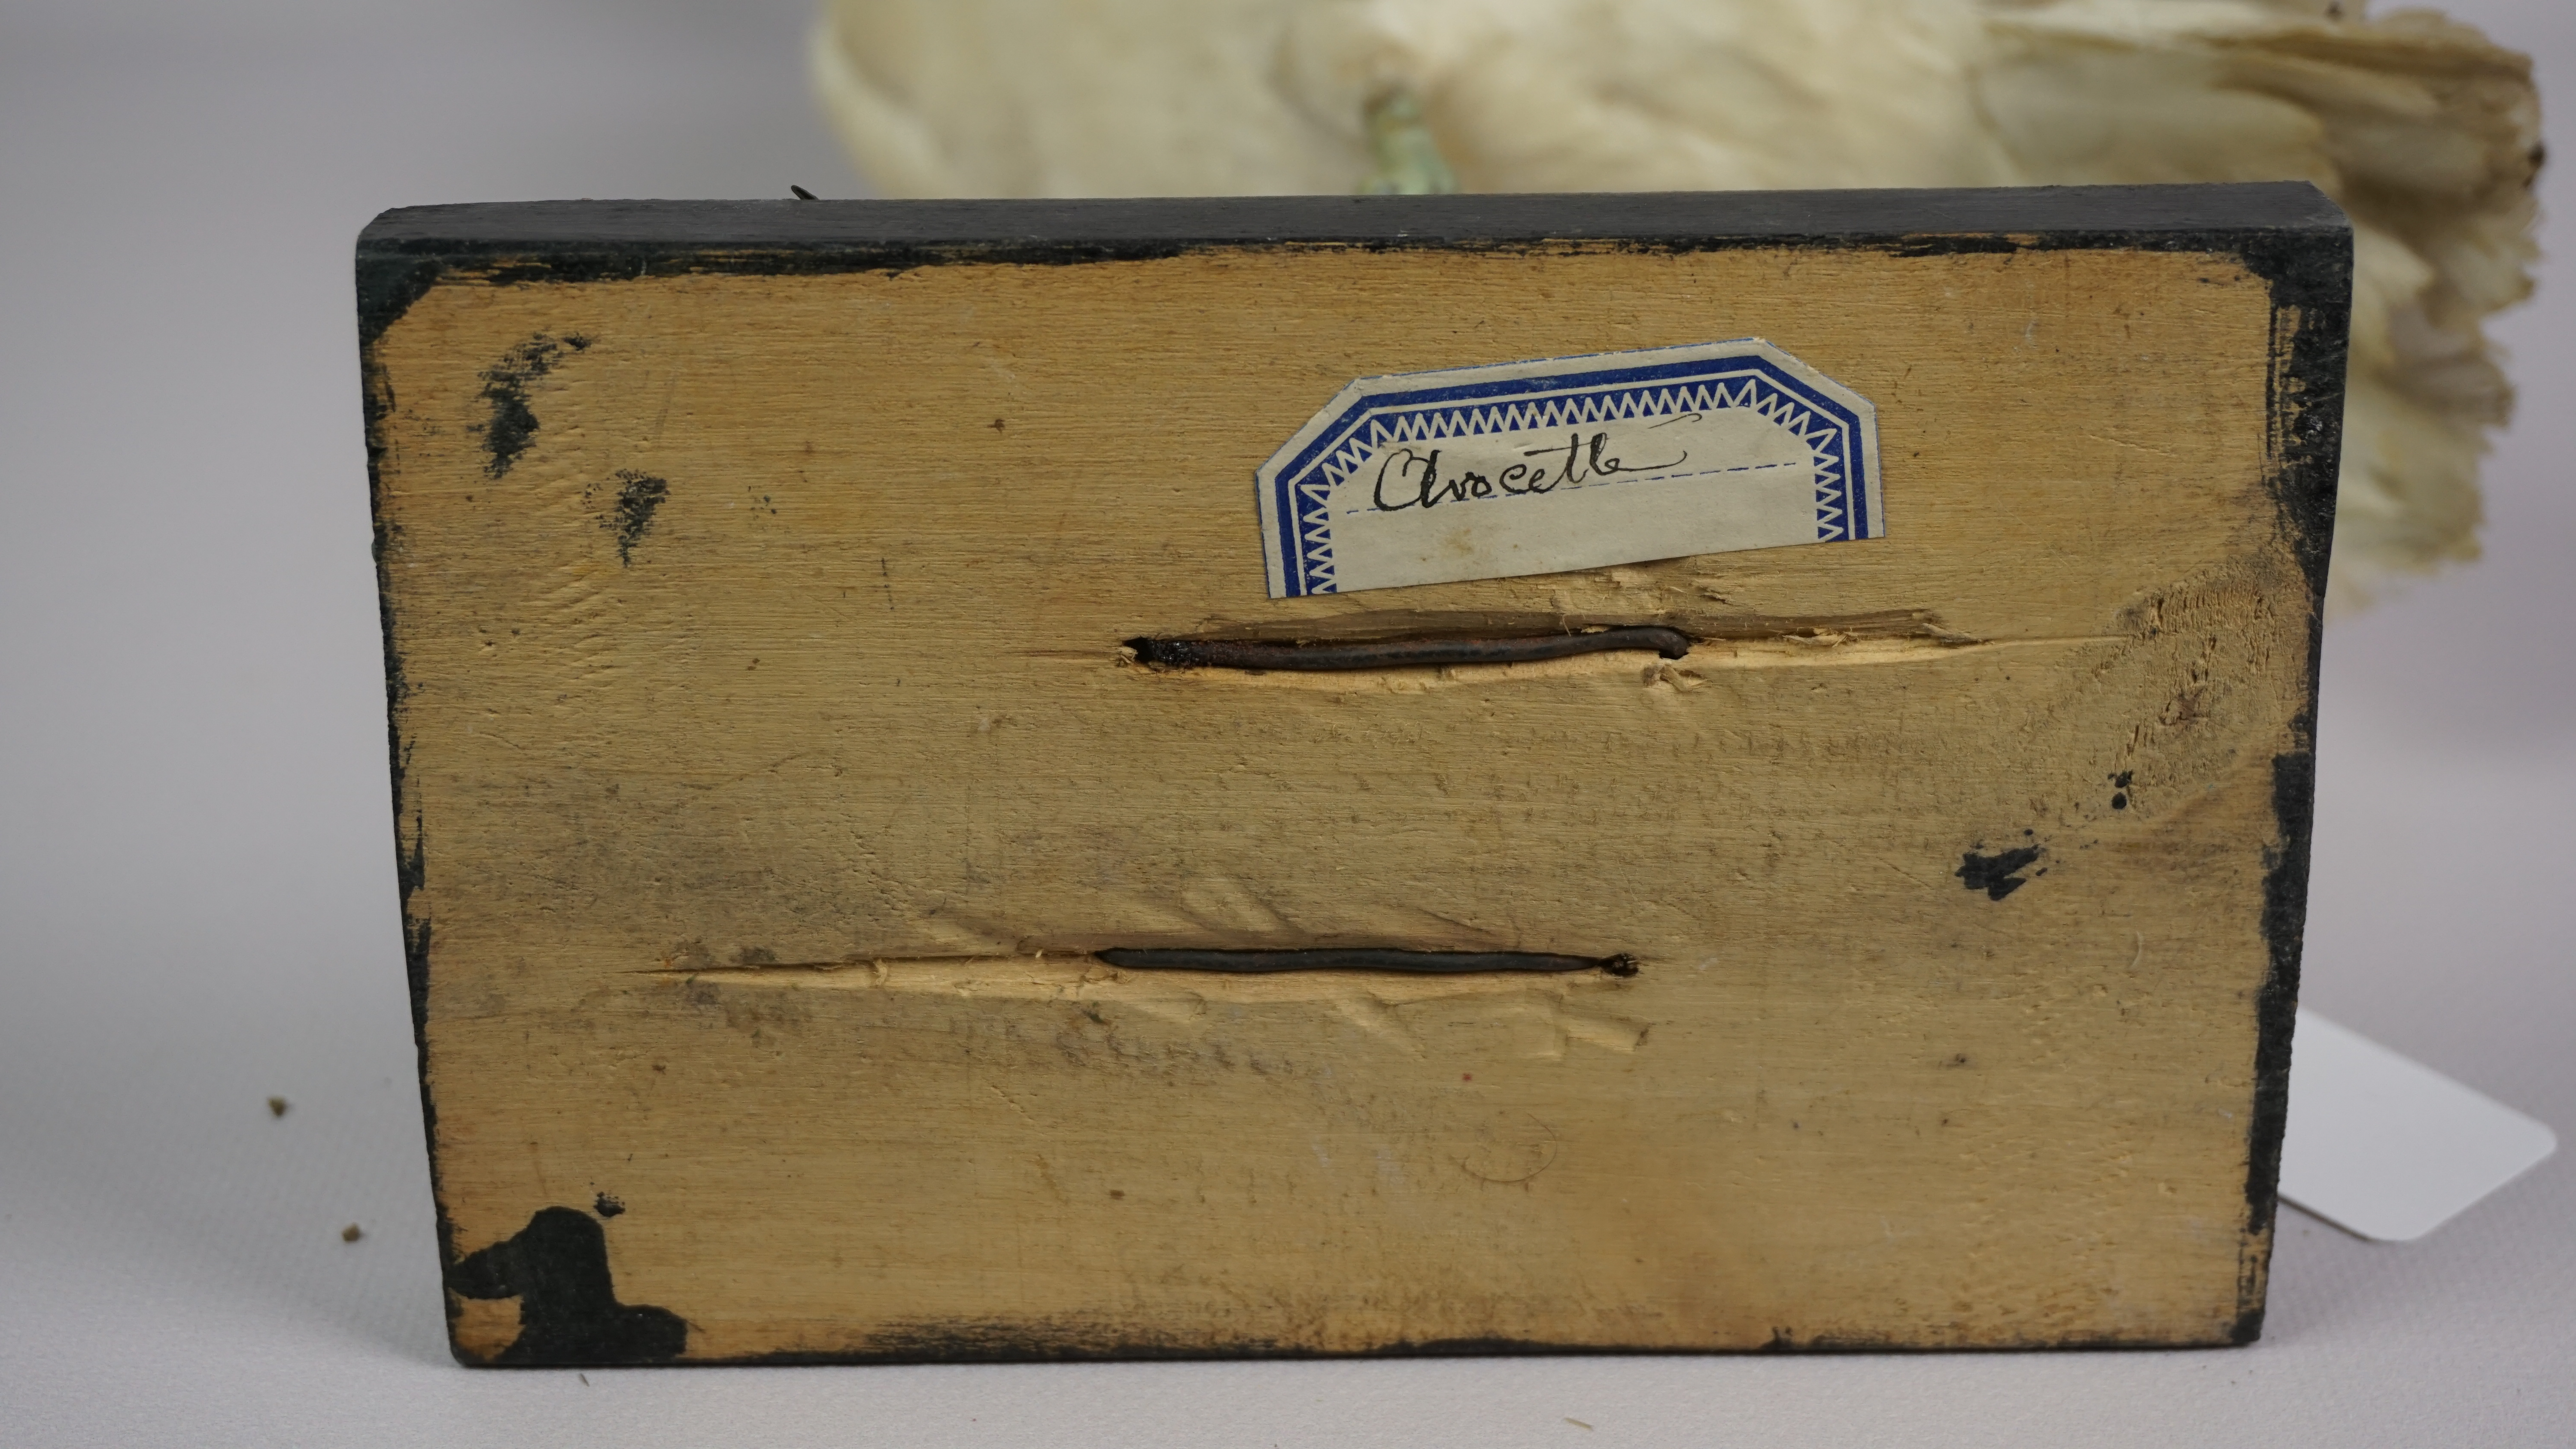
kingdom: Animalia
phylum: Chordata
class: Aves
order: Charadriiformes
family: Recurvirostridae
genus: Recurvirostra
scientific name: Recurvirostra avosetta
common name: Pied avocet
